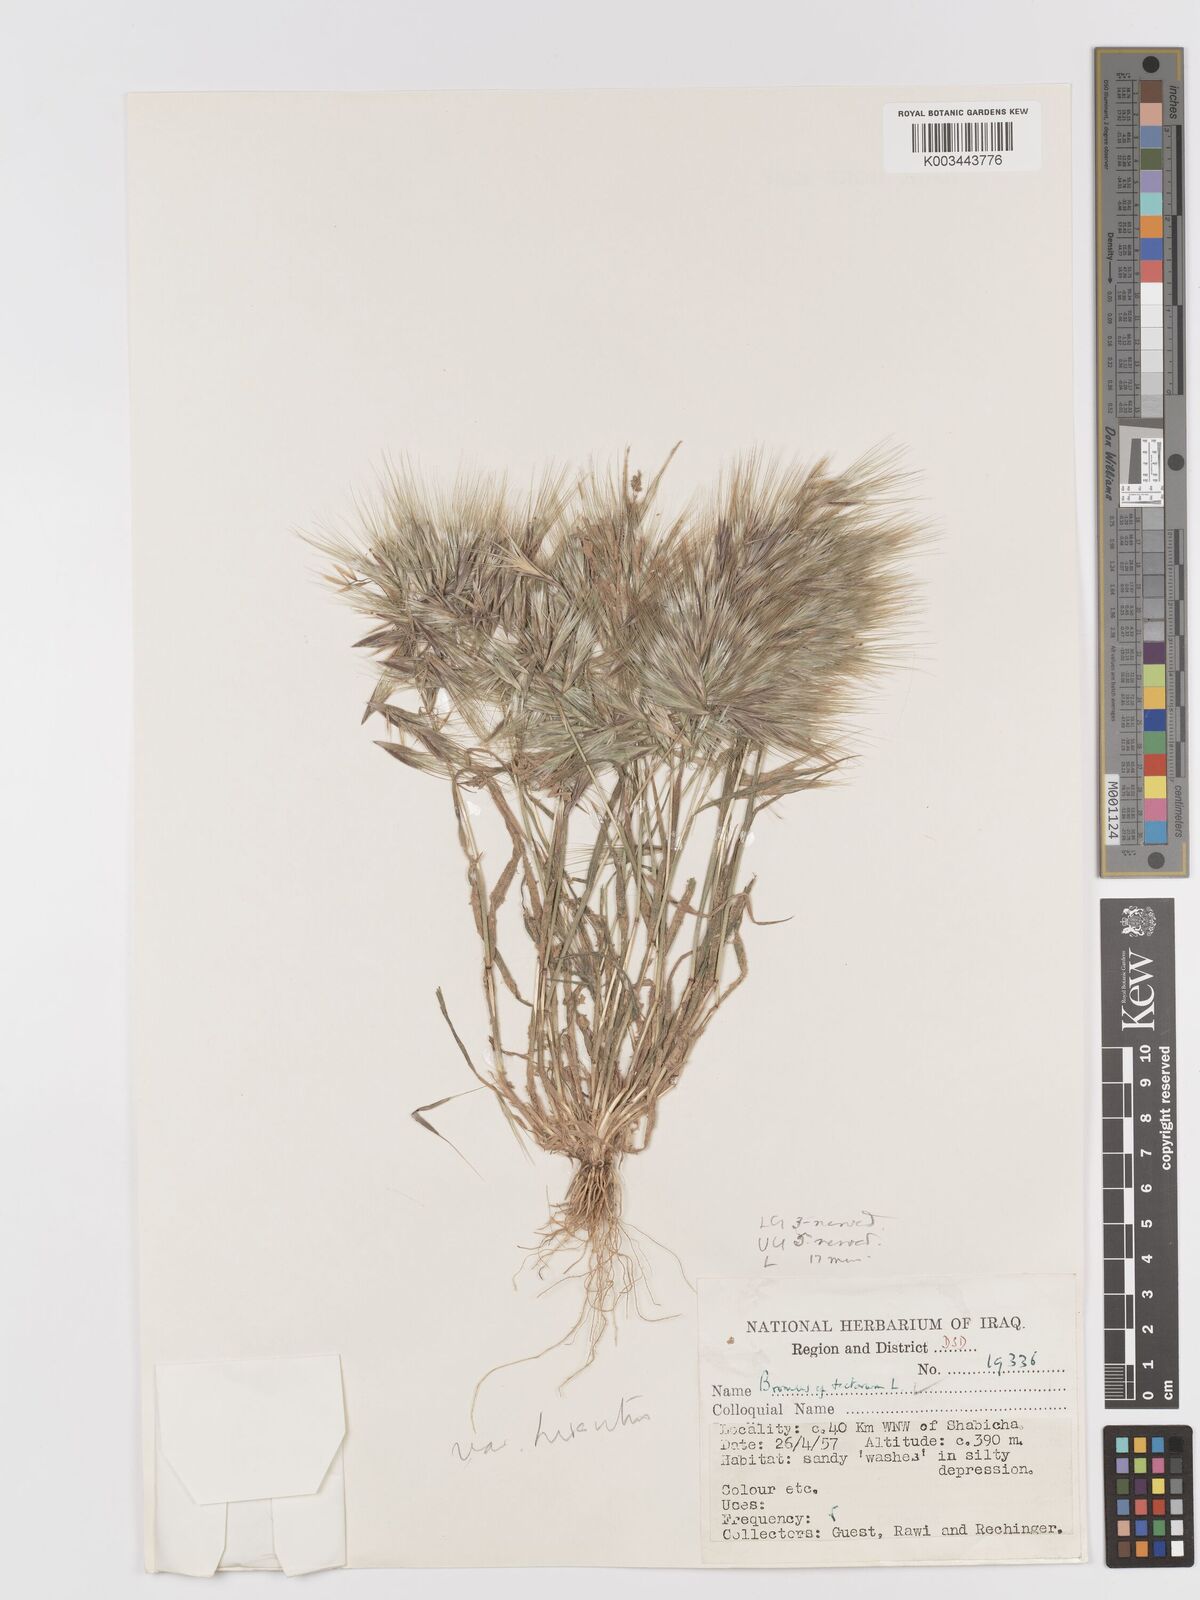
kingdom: Plantae
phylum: Tracheophyta
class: Liliopsida
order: Poales
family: Poaceae
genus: Bromus
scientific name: Bromus tectorum
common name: Cheatgrass
